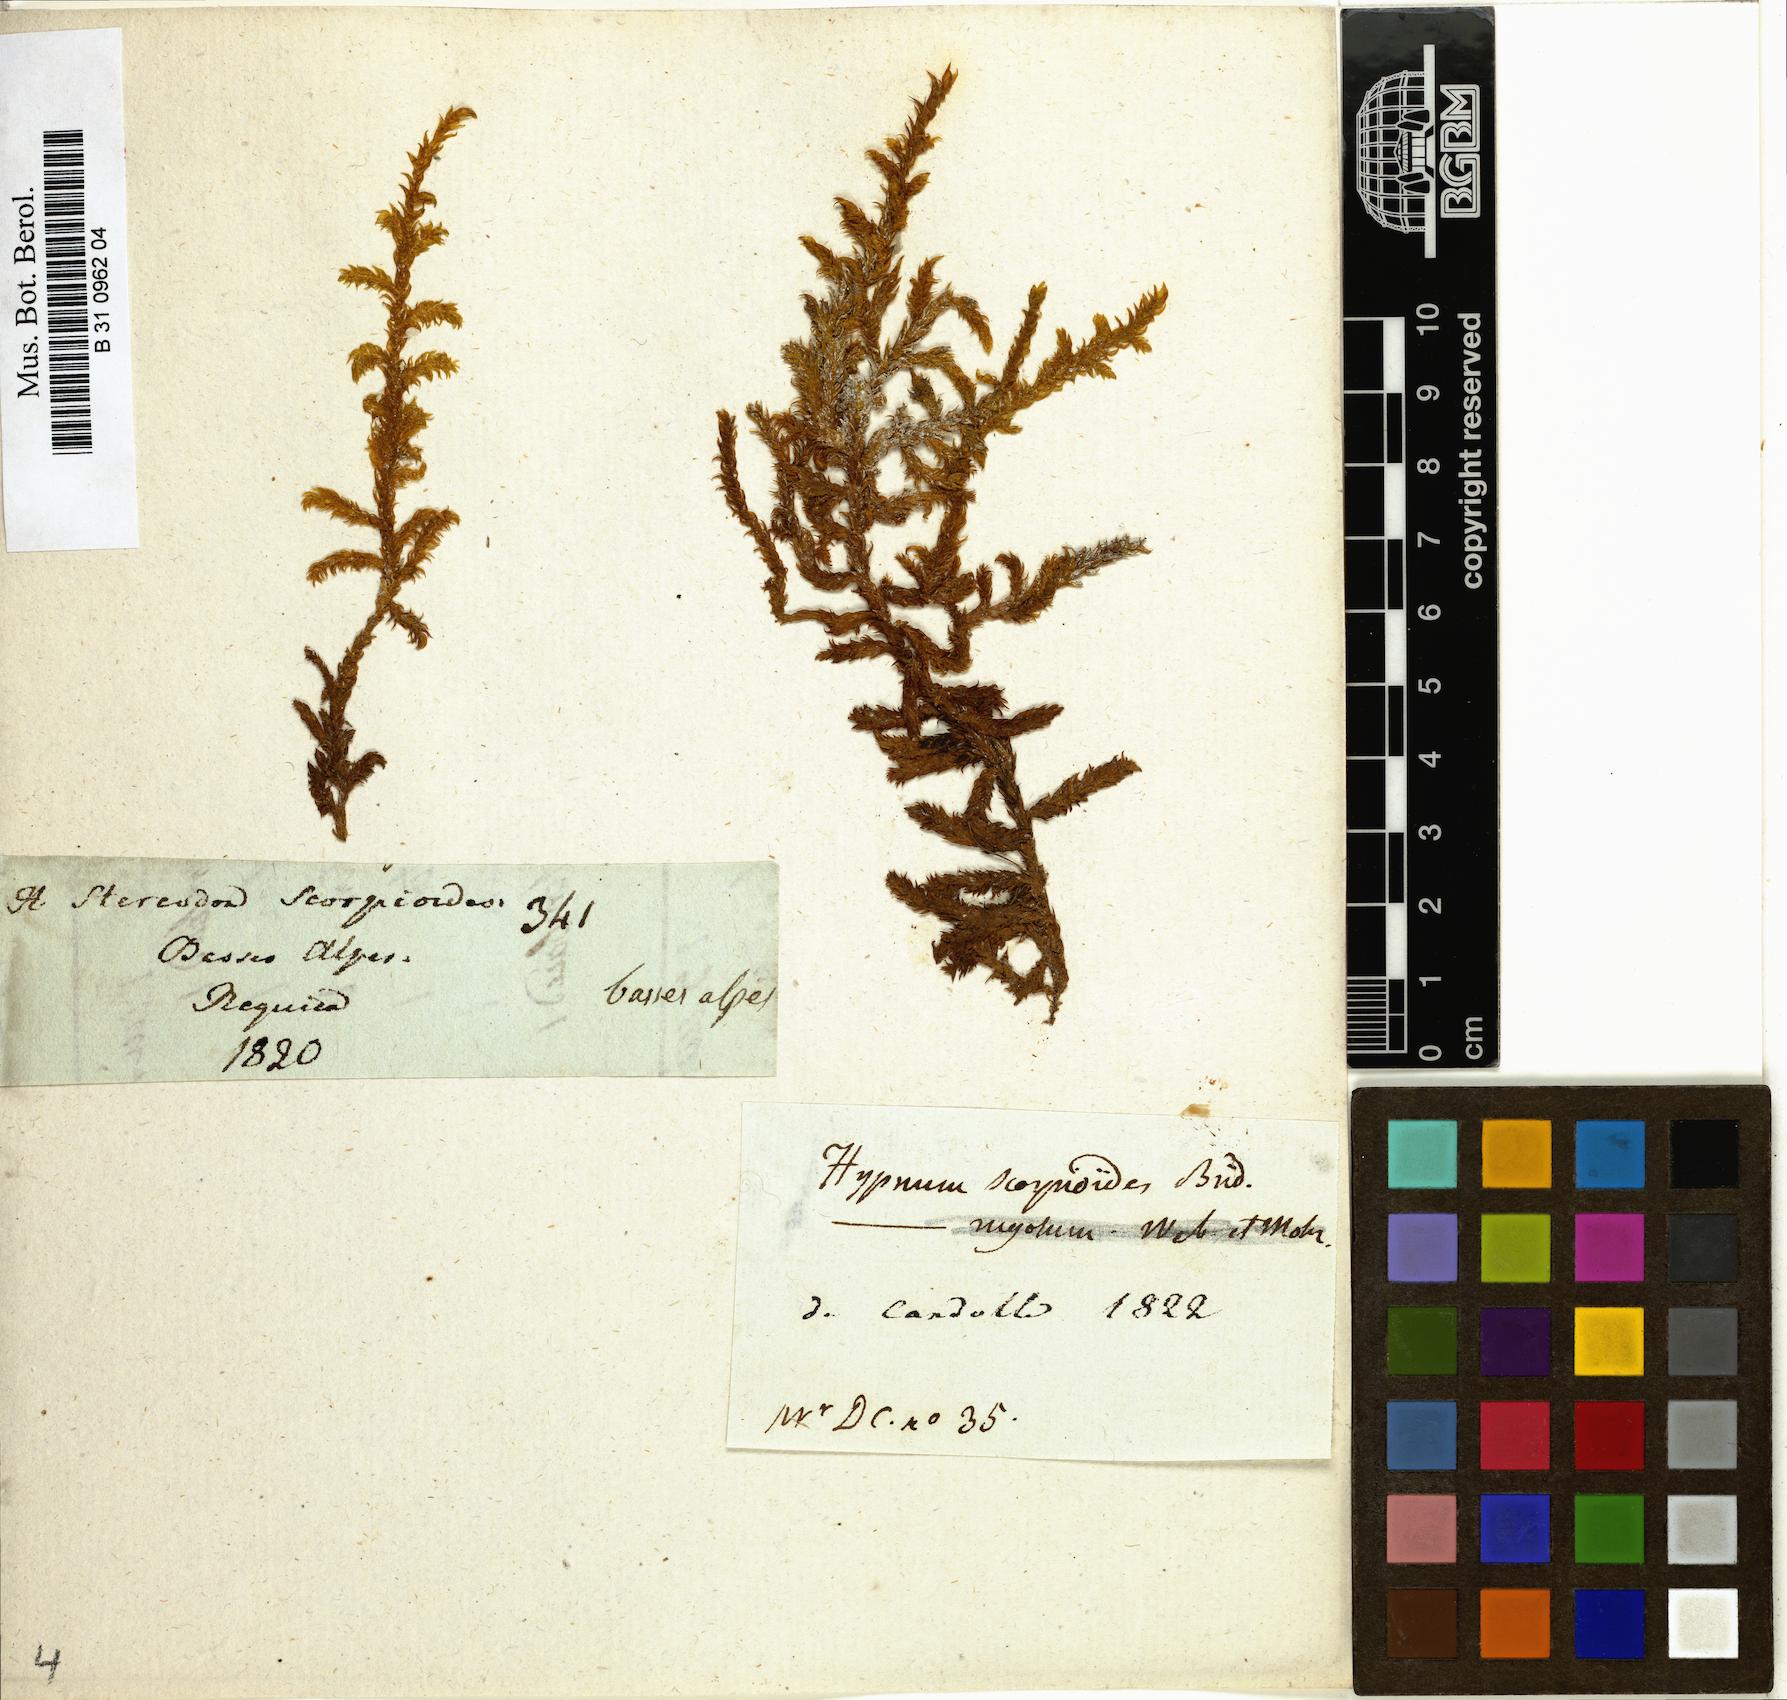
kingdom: Plantae
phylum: Bryophyta
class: Bryopsida
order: Hypnales
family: Scorpidiaceae
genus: Scorpidium
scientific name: Scorpidium scorpioides
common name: Hooked scorpion moss
